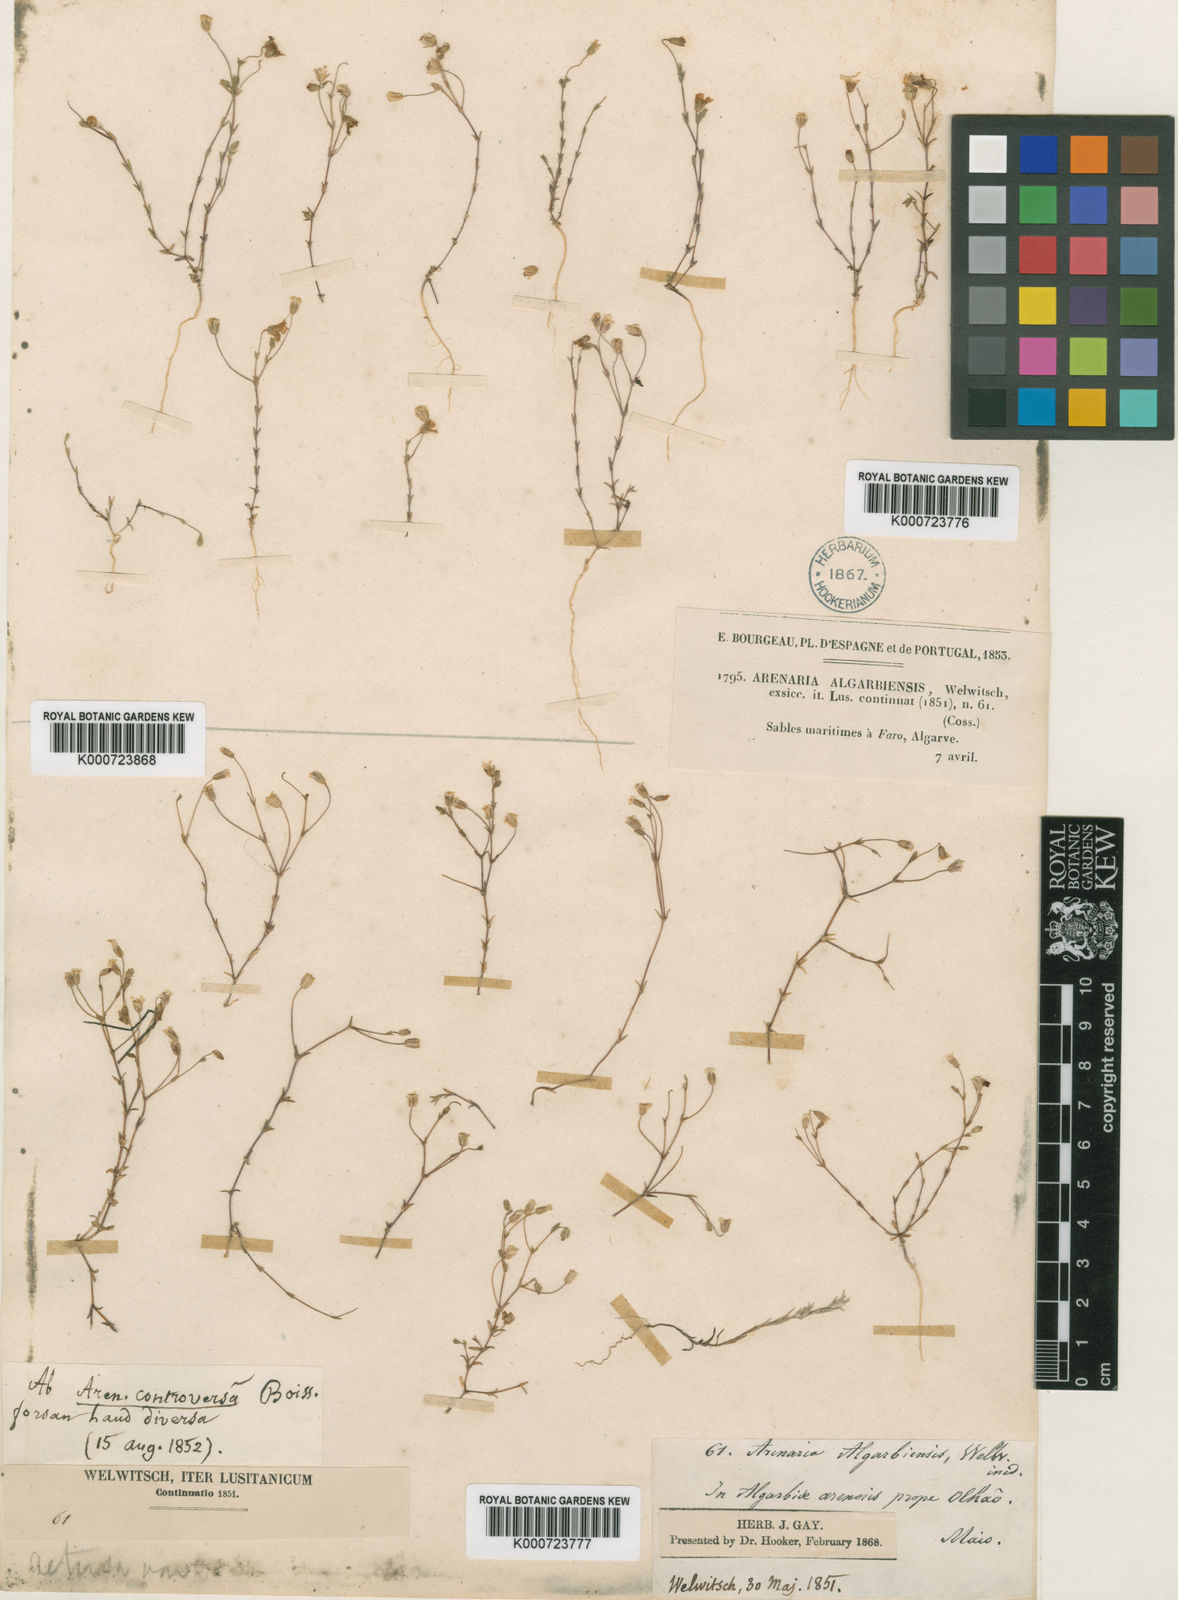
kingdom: Plantae
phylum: Tracheophyta
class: Magnoliopsida
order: Caryophyllales
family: Caryophyllaceae
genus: Arenaria
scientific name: Arenaria algarbiensis
